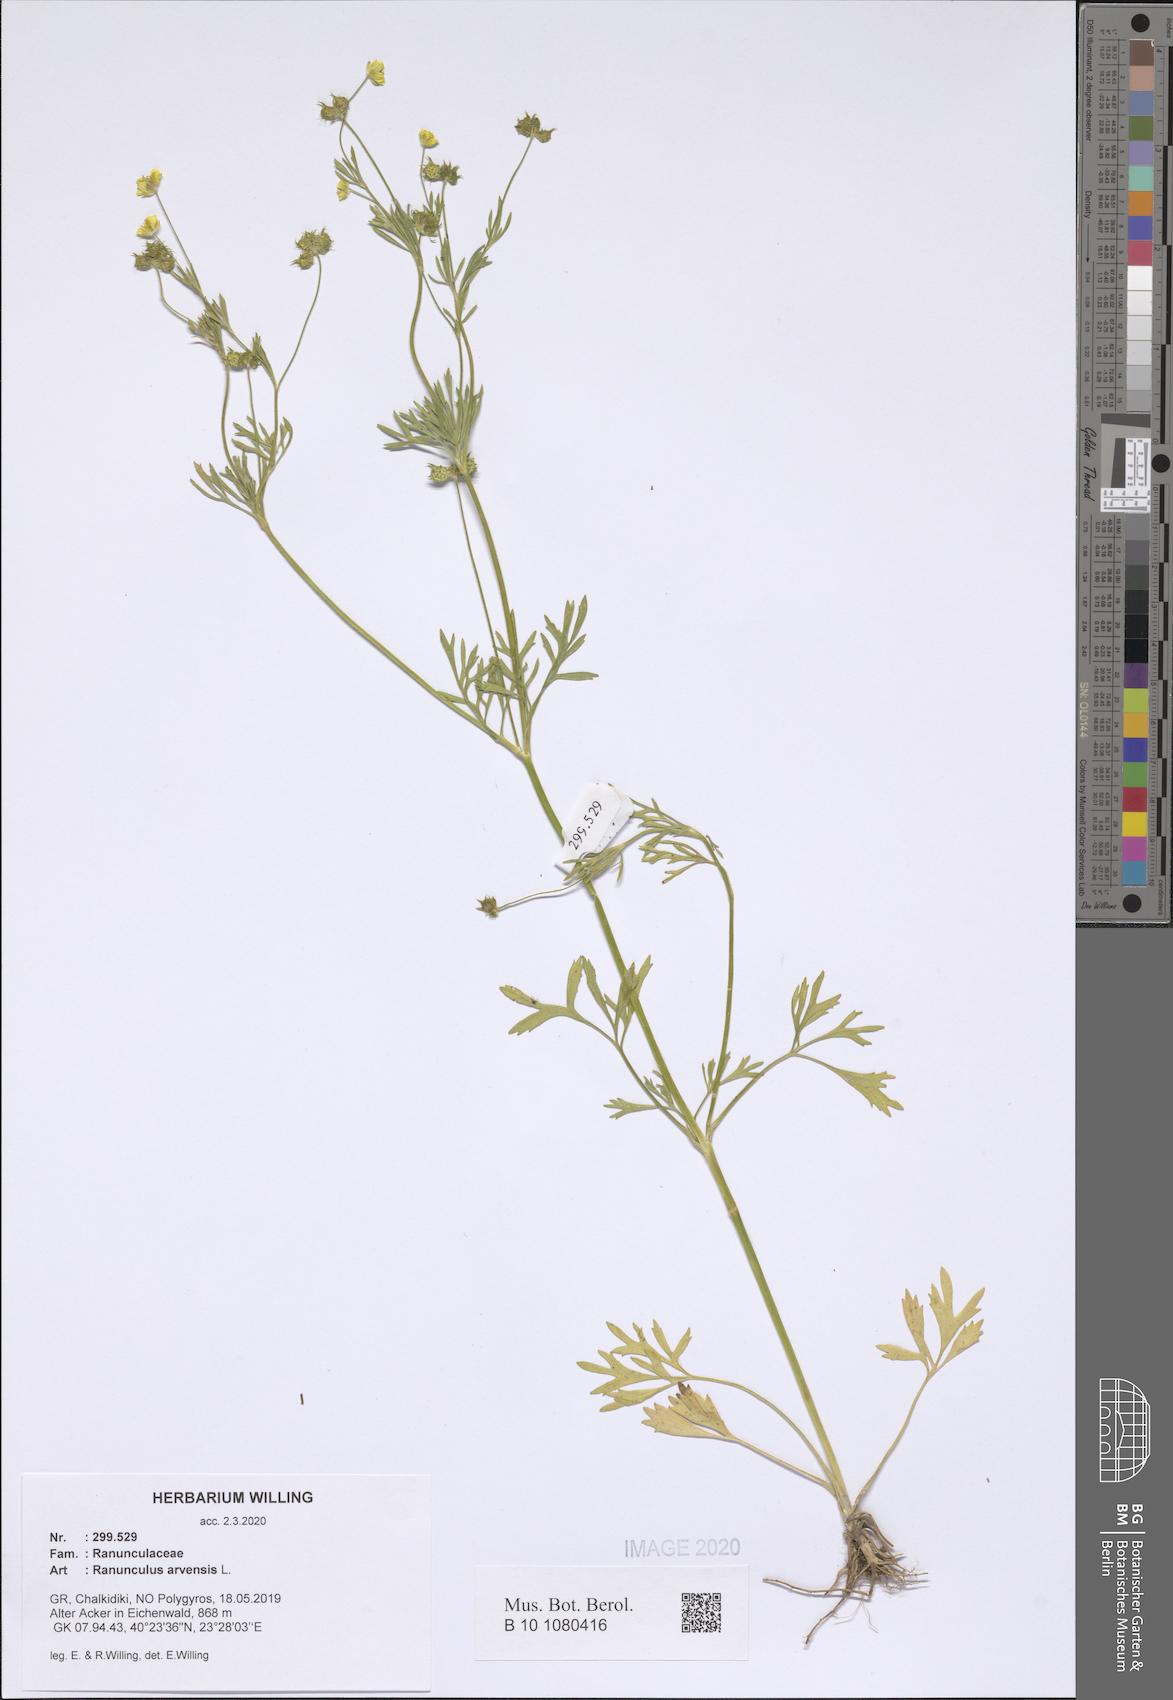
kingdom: Plantae
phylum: Tracheophyta
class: Magnoliopsida
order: Ranunculales
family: Ranunculaceae
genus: Ranunculus
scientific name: Ranunculus arvensis
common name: Corn buttercup
